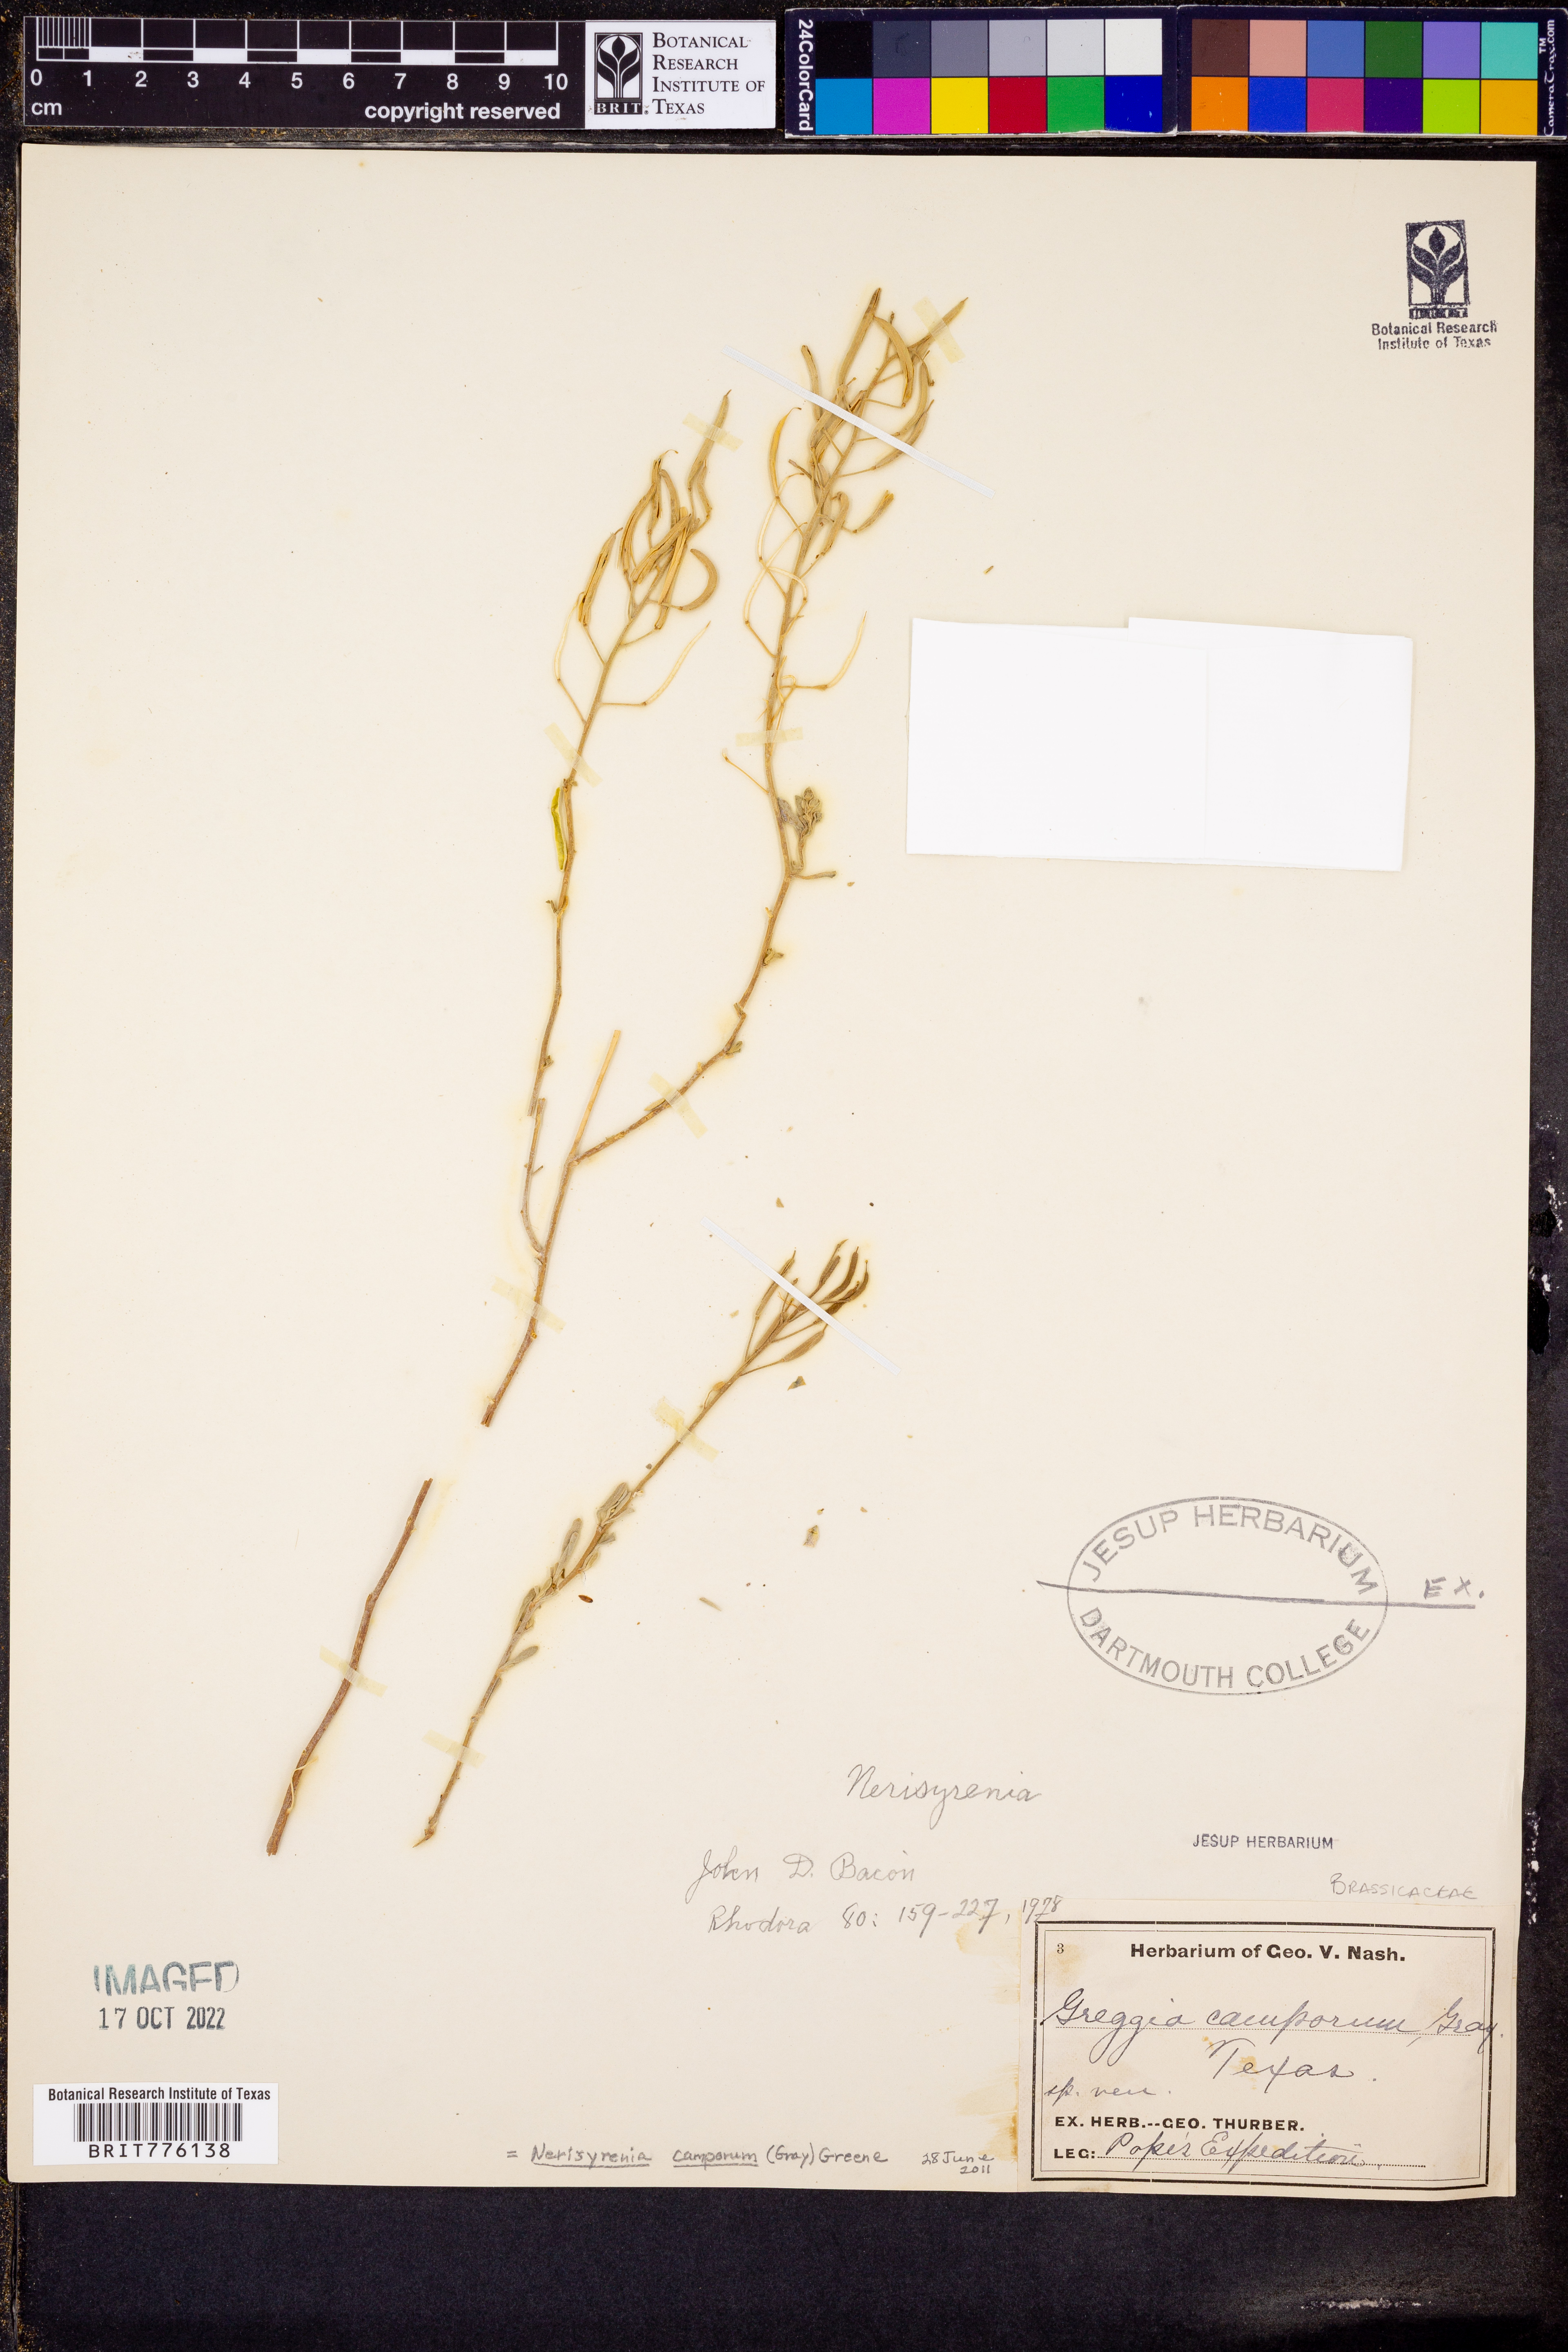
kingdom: Plantae
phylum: Tracheophyta
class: Magnoliopsida
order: Brassicales
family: Brassicaceae
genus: Nerisyrenia
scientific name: Nerisyrenia camporum
